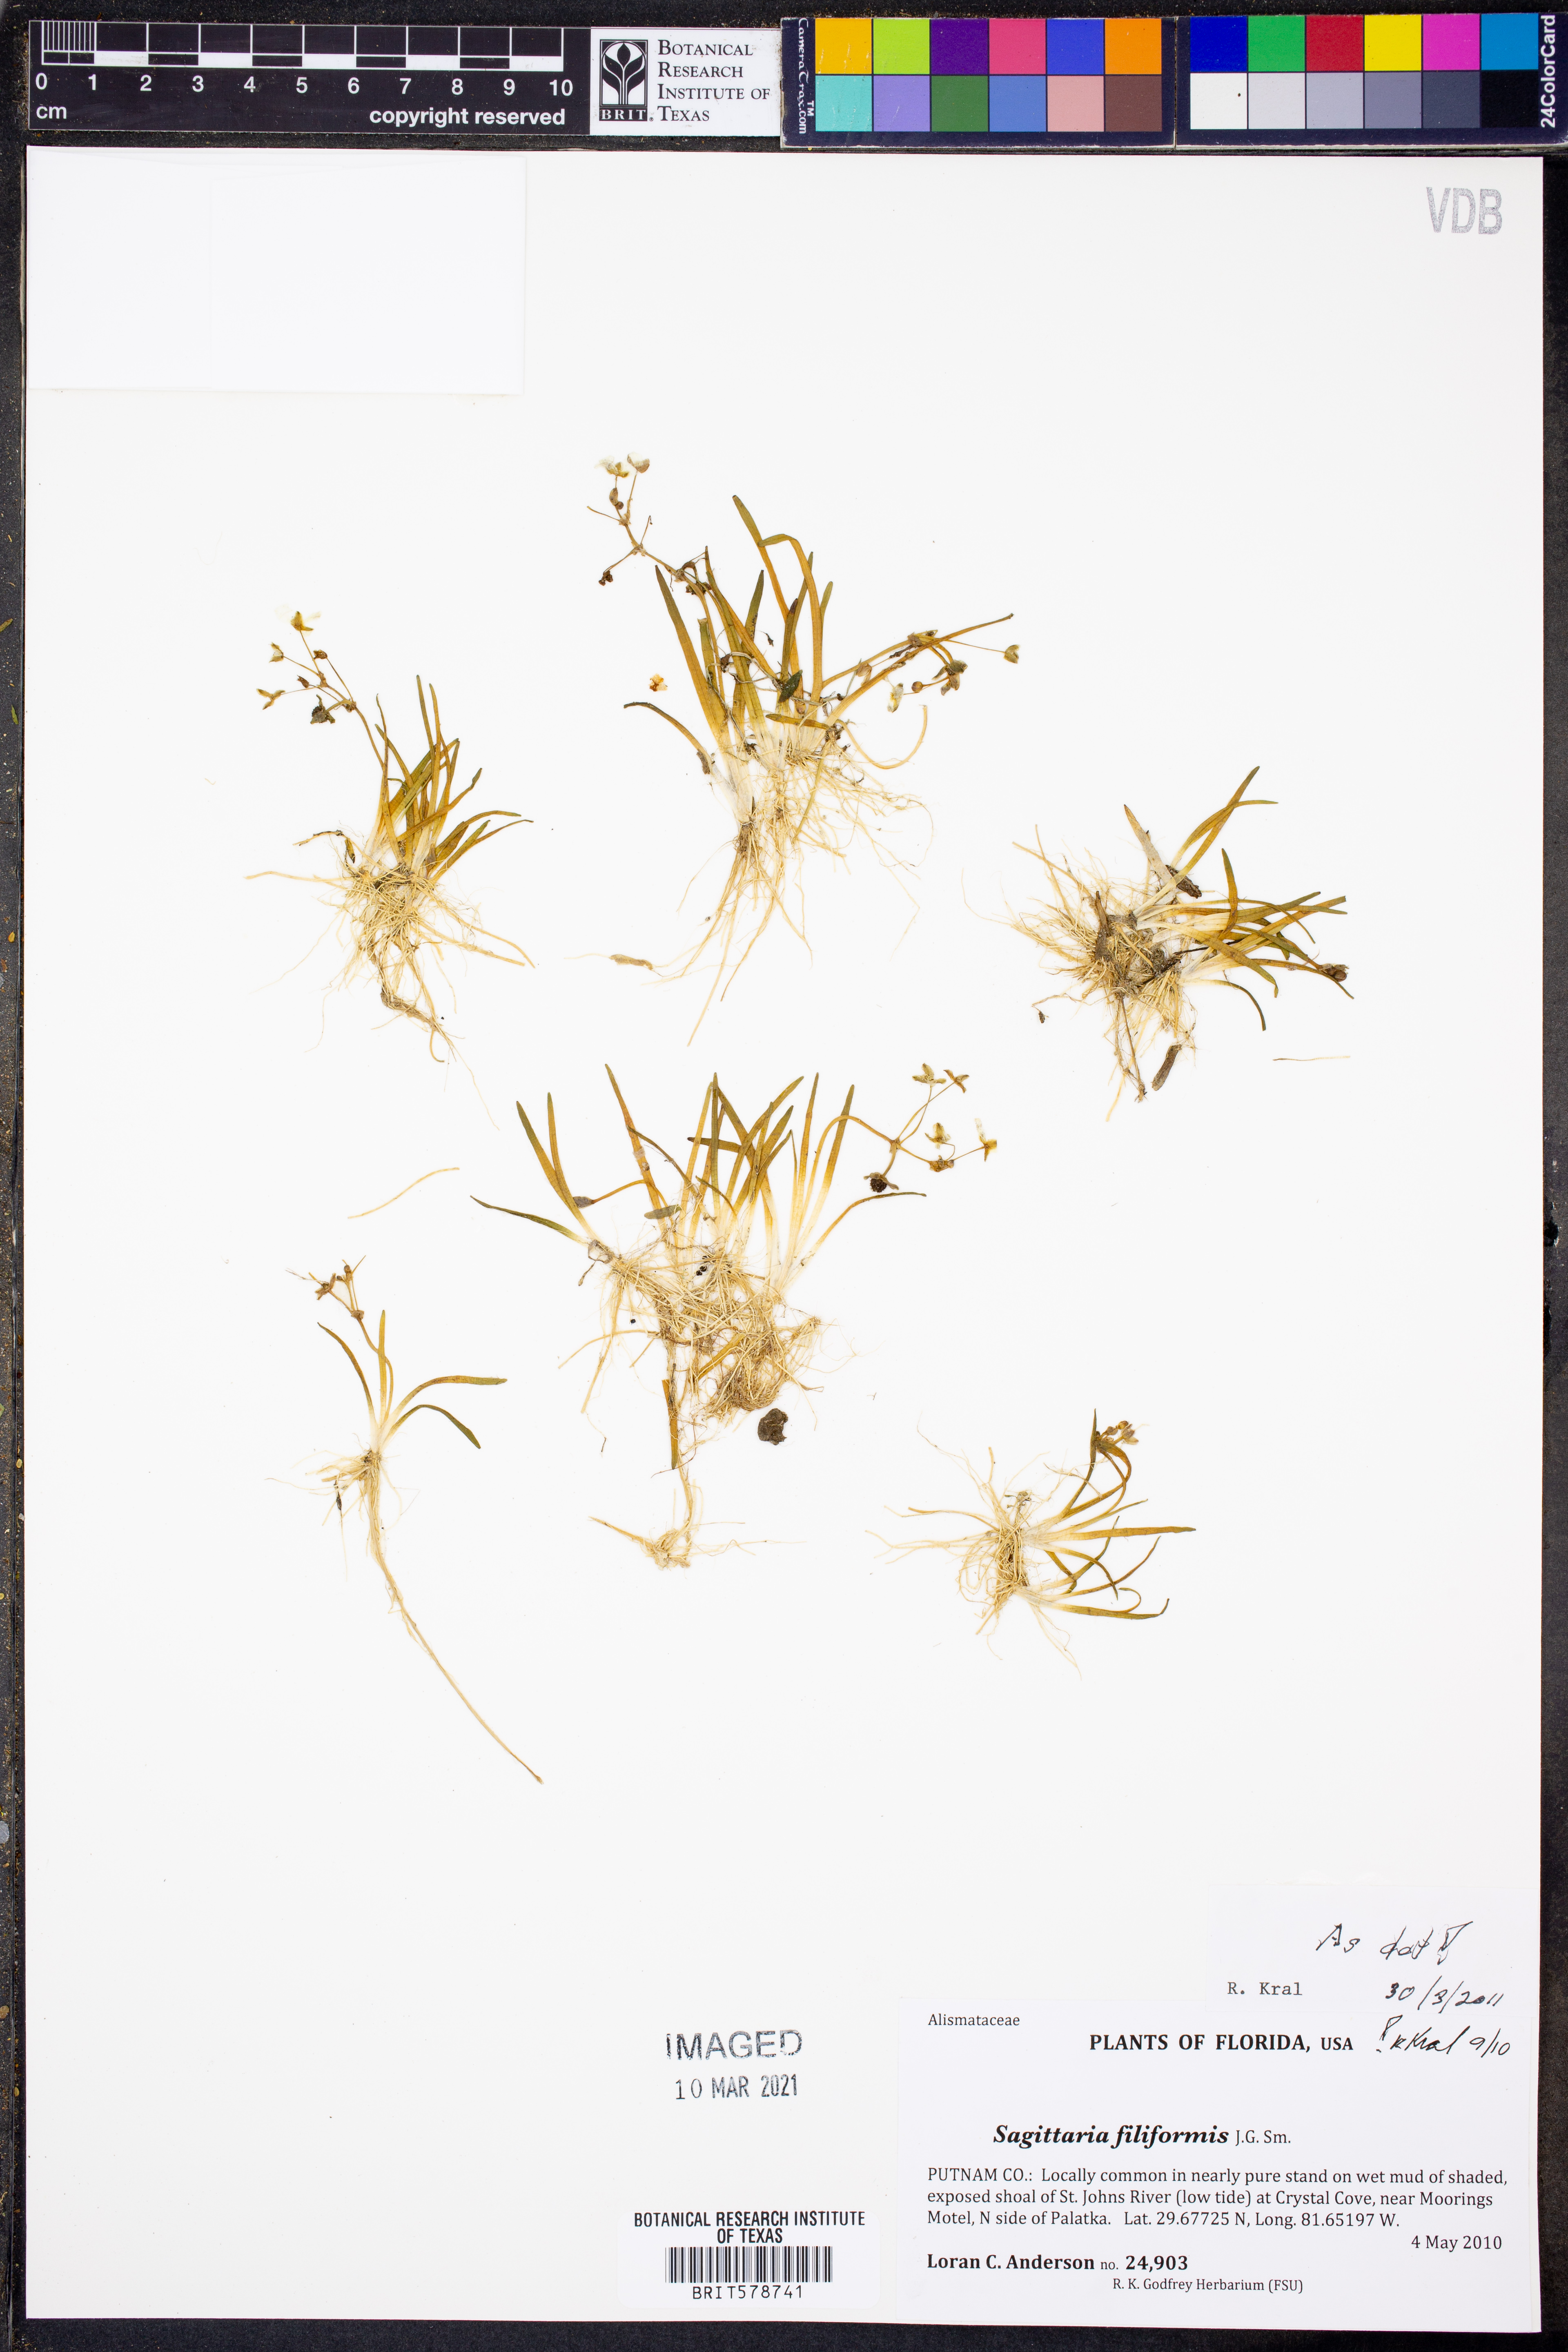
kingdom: Plantae
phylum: Tracheophyta
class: Liliopsida
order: Alismatales
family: Alismataceae
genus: Sagittaria
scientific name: Sagittaria filiformis
